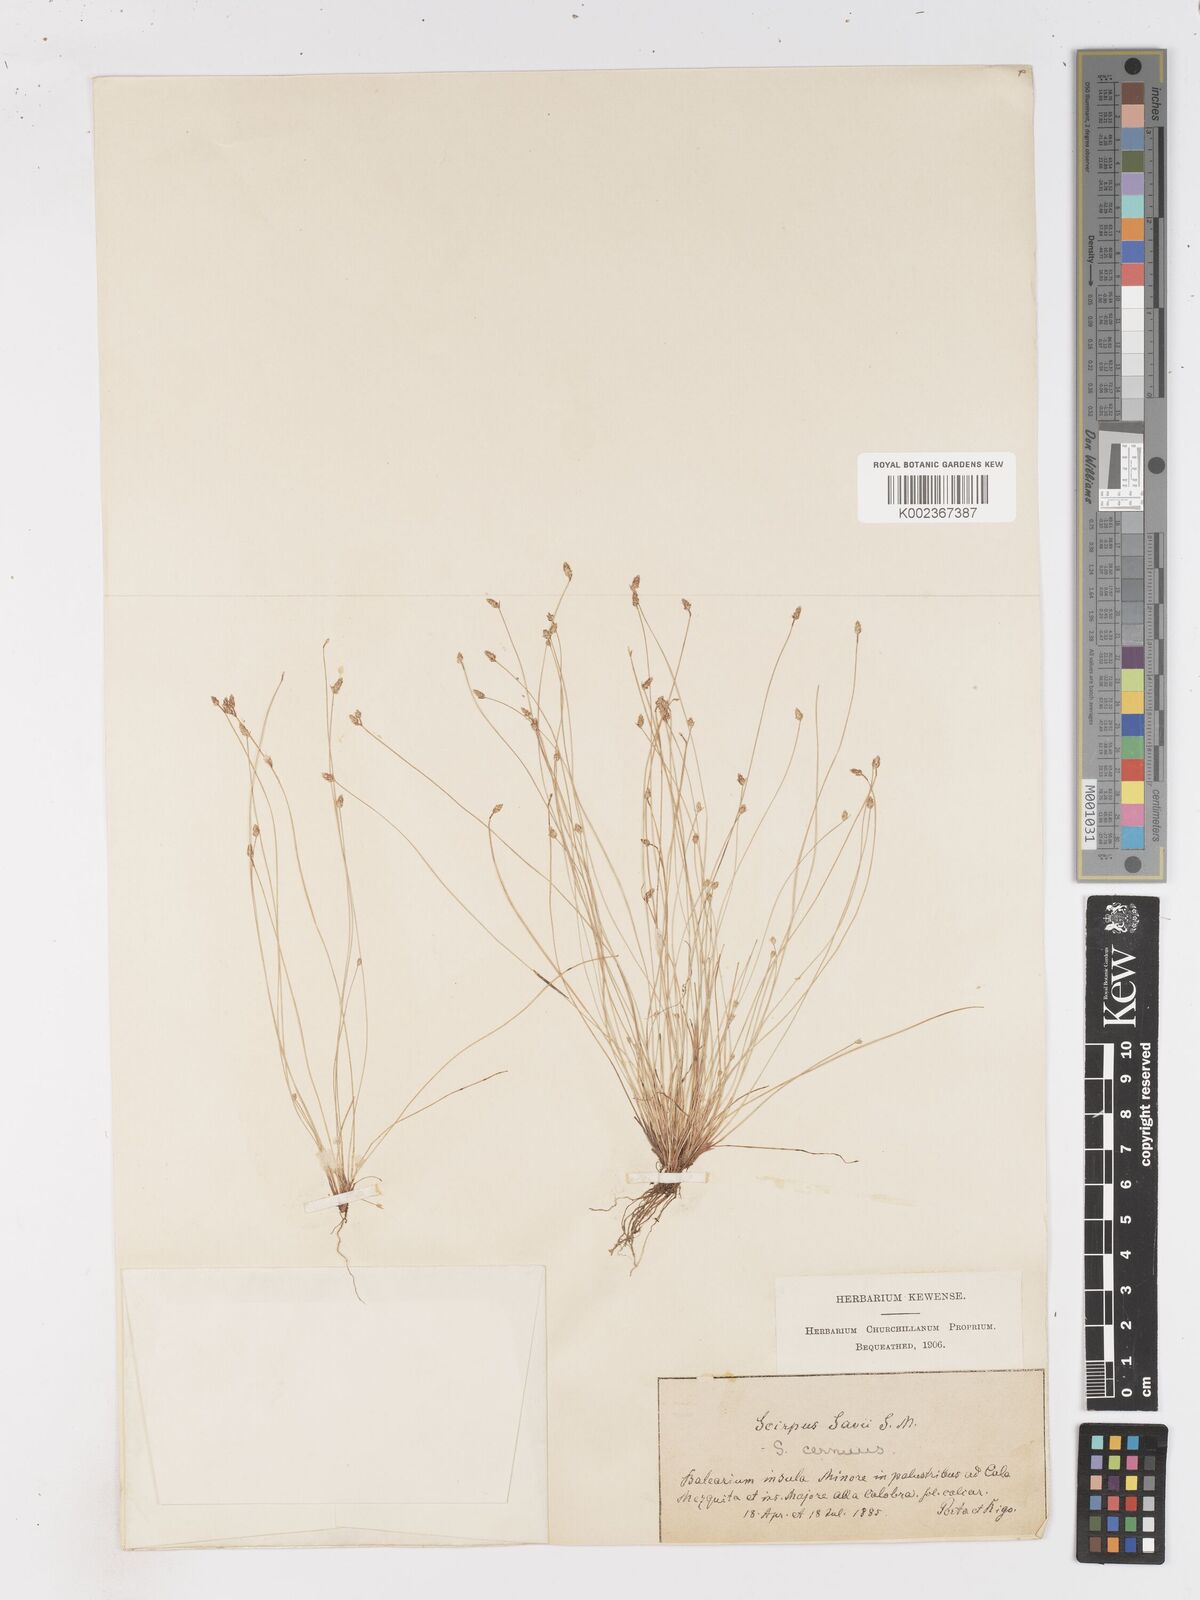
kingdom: Plantae
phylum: Tracheophyta
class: Liliopsida
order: Poales
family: Cyperaceae
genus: Isolepis
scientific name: Isolepis cernua
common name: Slender club-rush
